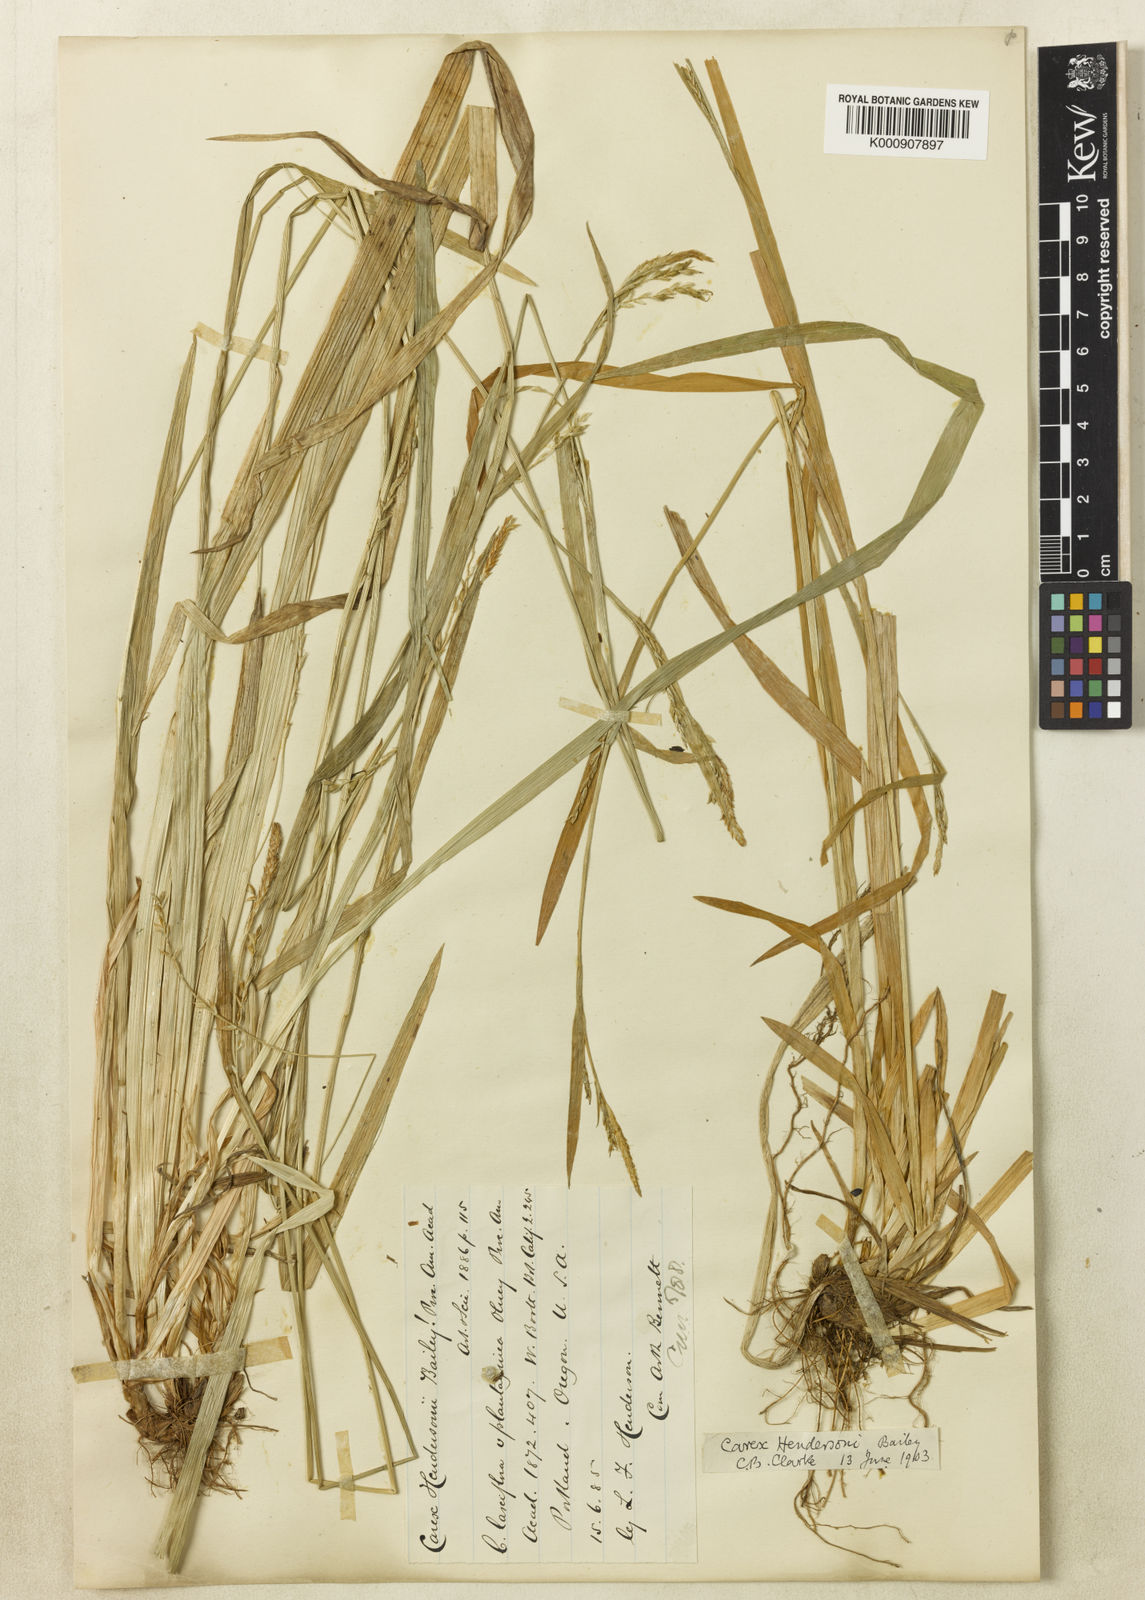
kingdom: Plantae
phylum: Tracheophyta
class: Liliopsida
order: Poales
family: Cyperaceae
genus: Carex
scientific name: Carex hendersonii
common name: Henderson's sedge
